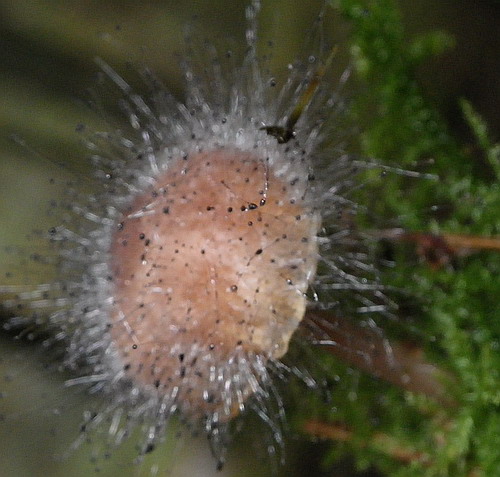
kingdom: Fungi
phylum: Mucoromycota
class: Mucoromycetes
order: Mucorales
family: Phycomycetaceae
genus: Spinellus
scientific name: Spinellus fusiger
